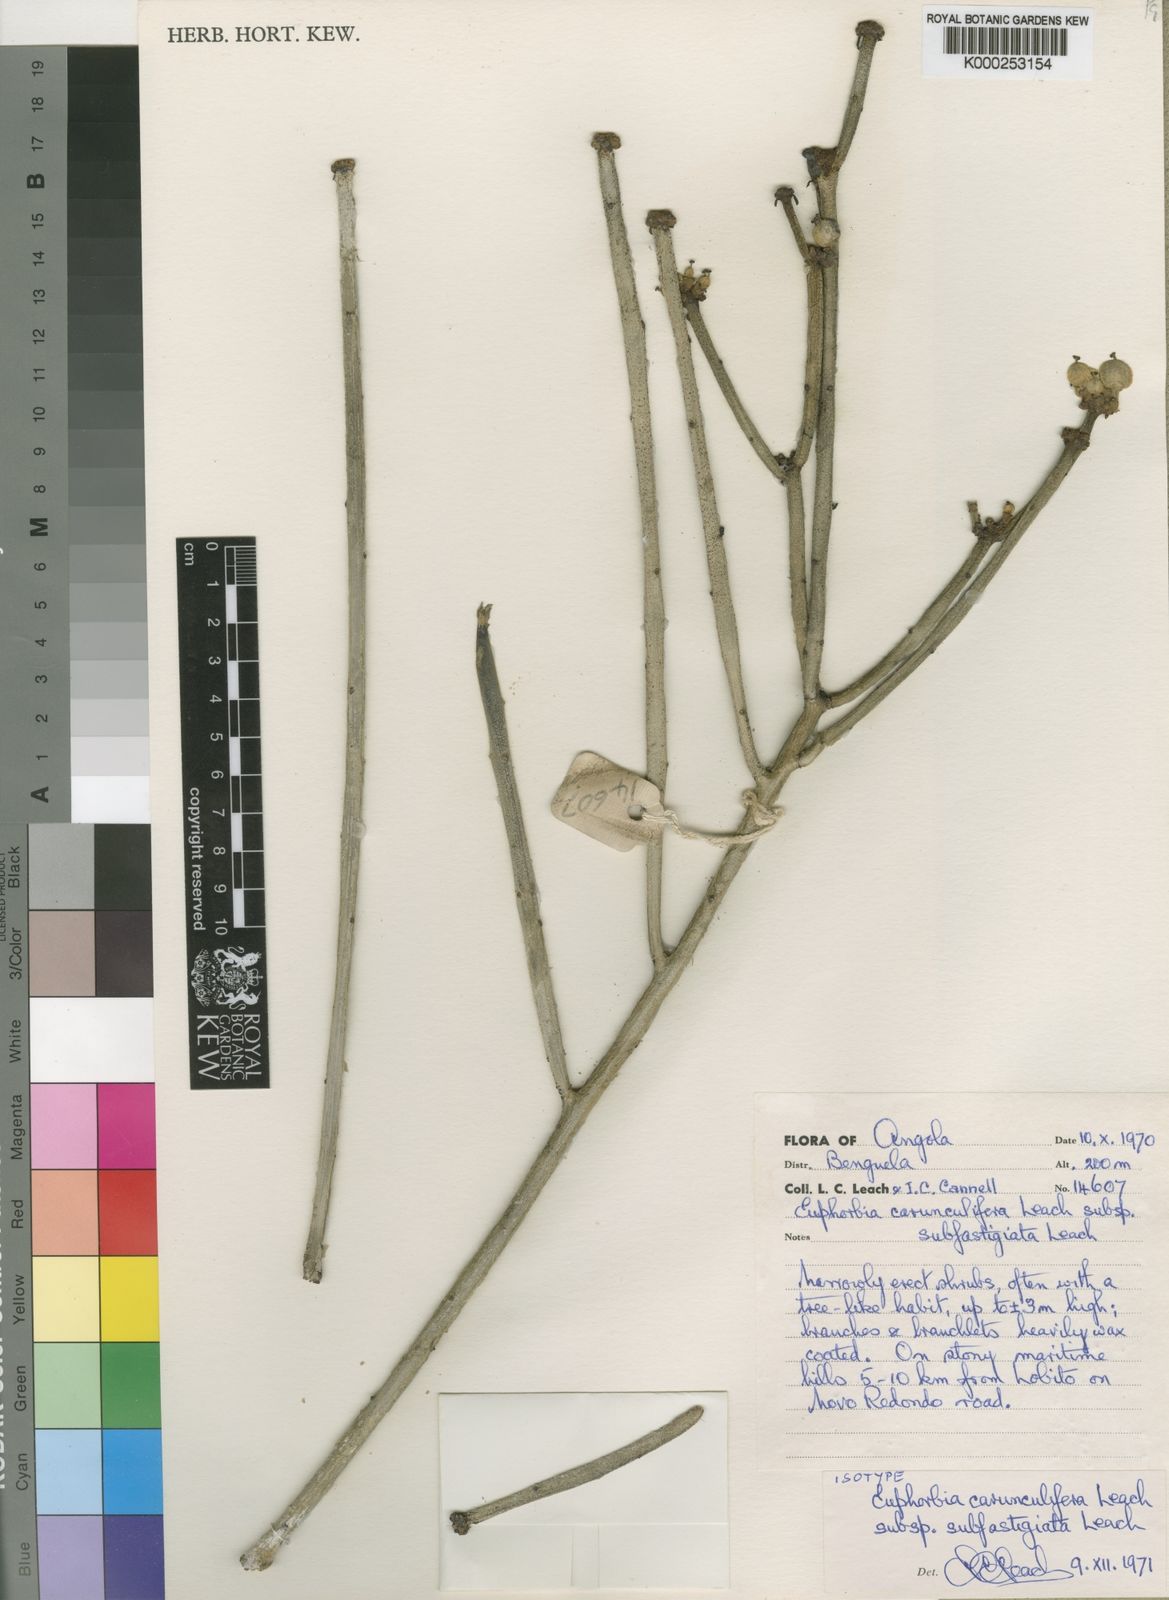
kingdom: Plantae
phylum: Tracheophyta
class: Magnoliopsida
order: Malpighiales
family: Euphorbiaceae
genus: Euphorbia
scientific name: Euphorbia carunculifera
